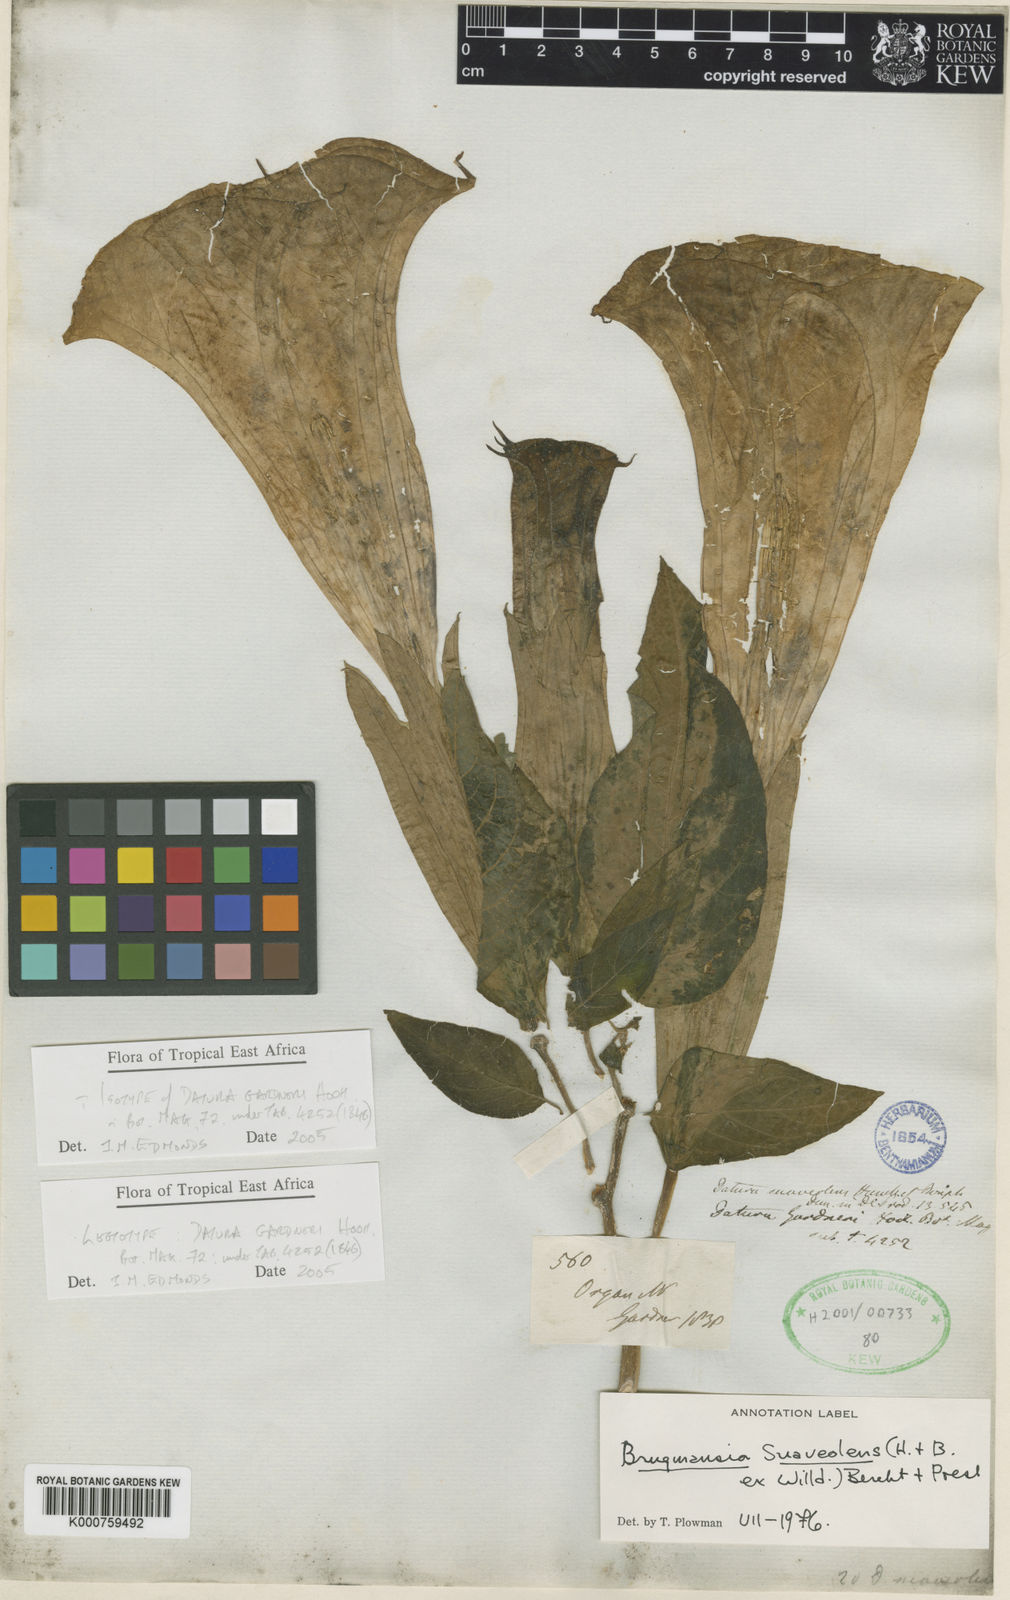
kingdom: Plantae
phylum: Tracheophyta
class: Magnoliopsida
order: Solanales
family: Solanaceae
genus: Brugmansia
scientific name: Brugmansia
